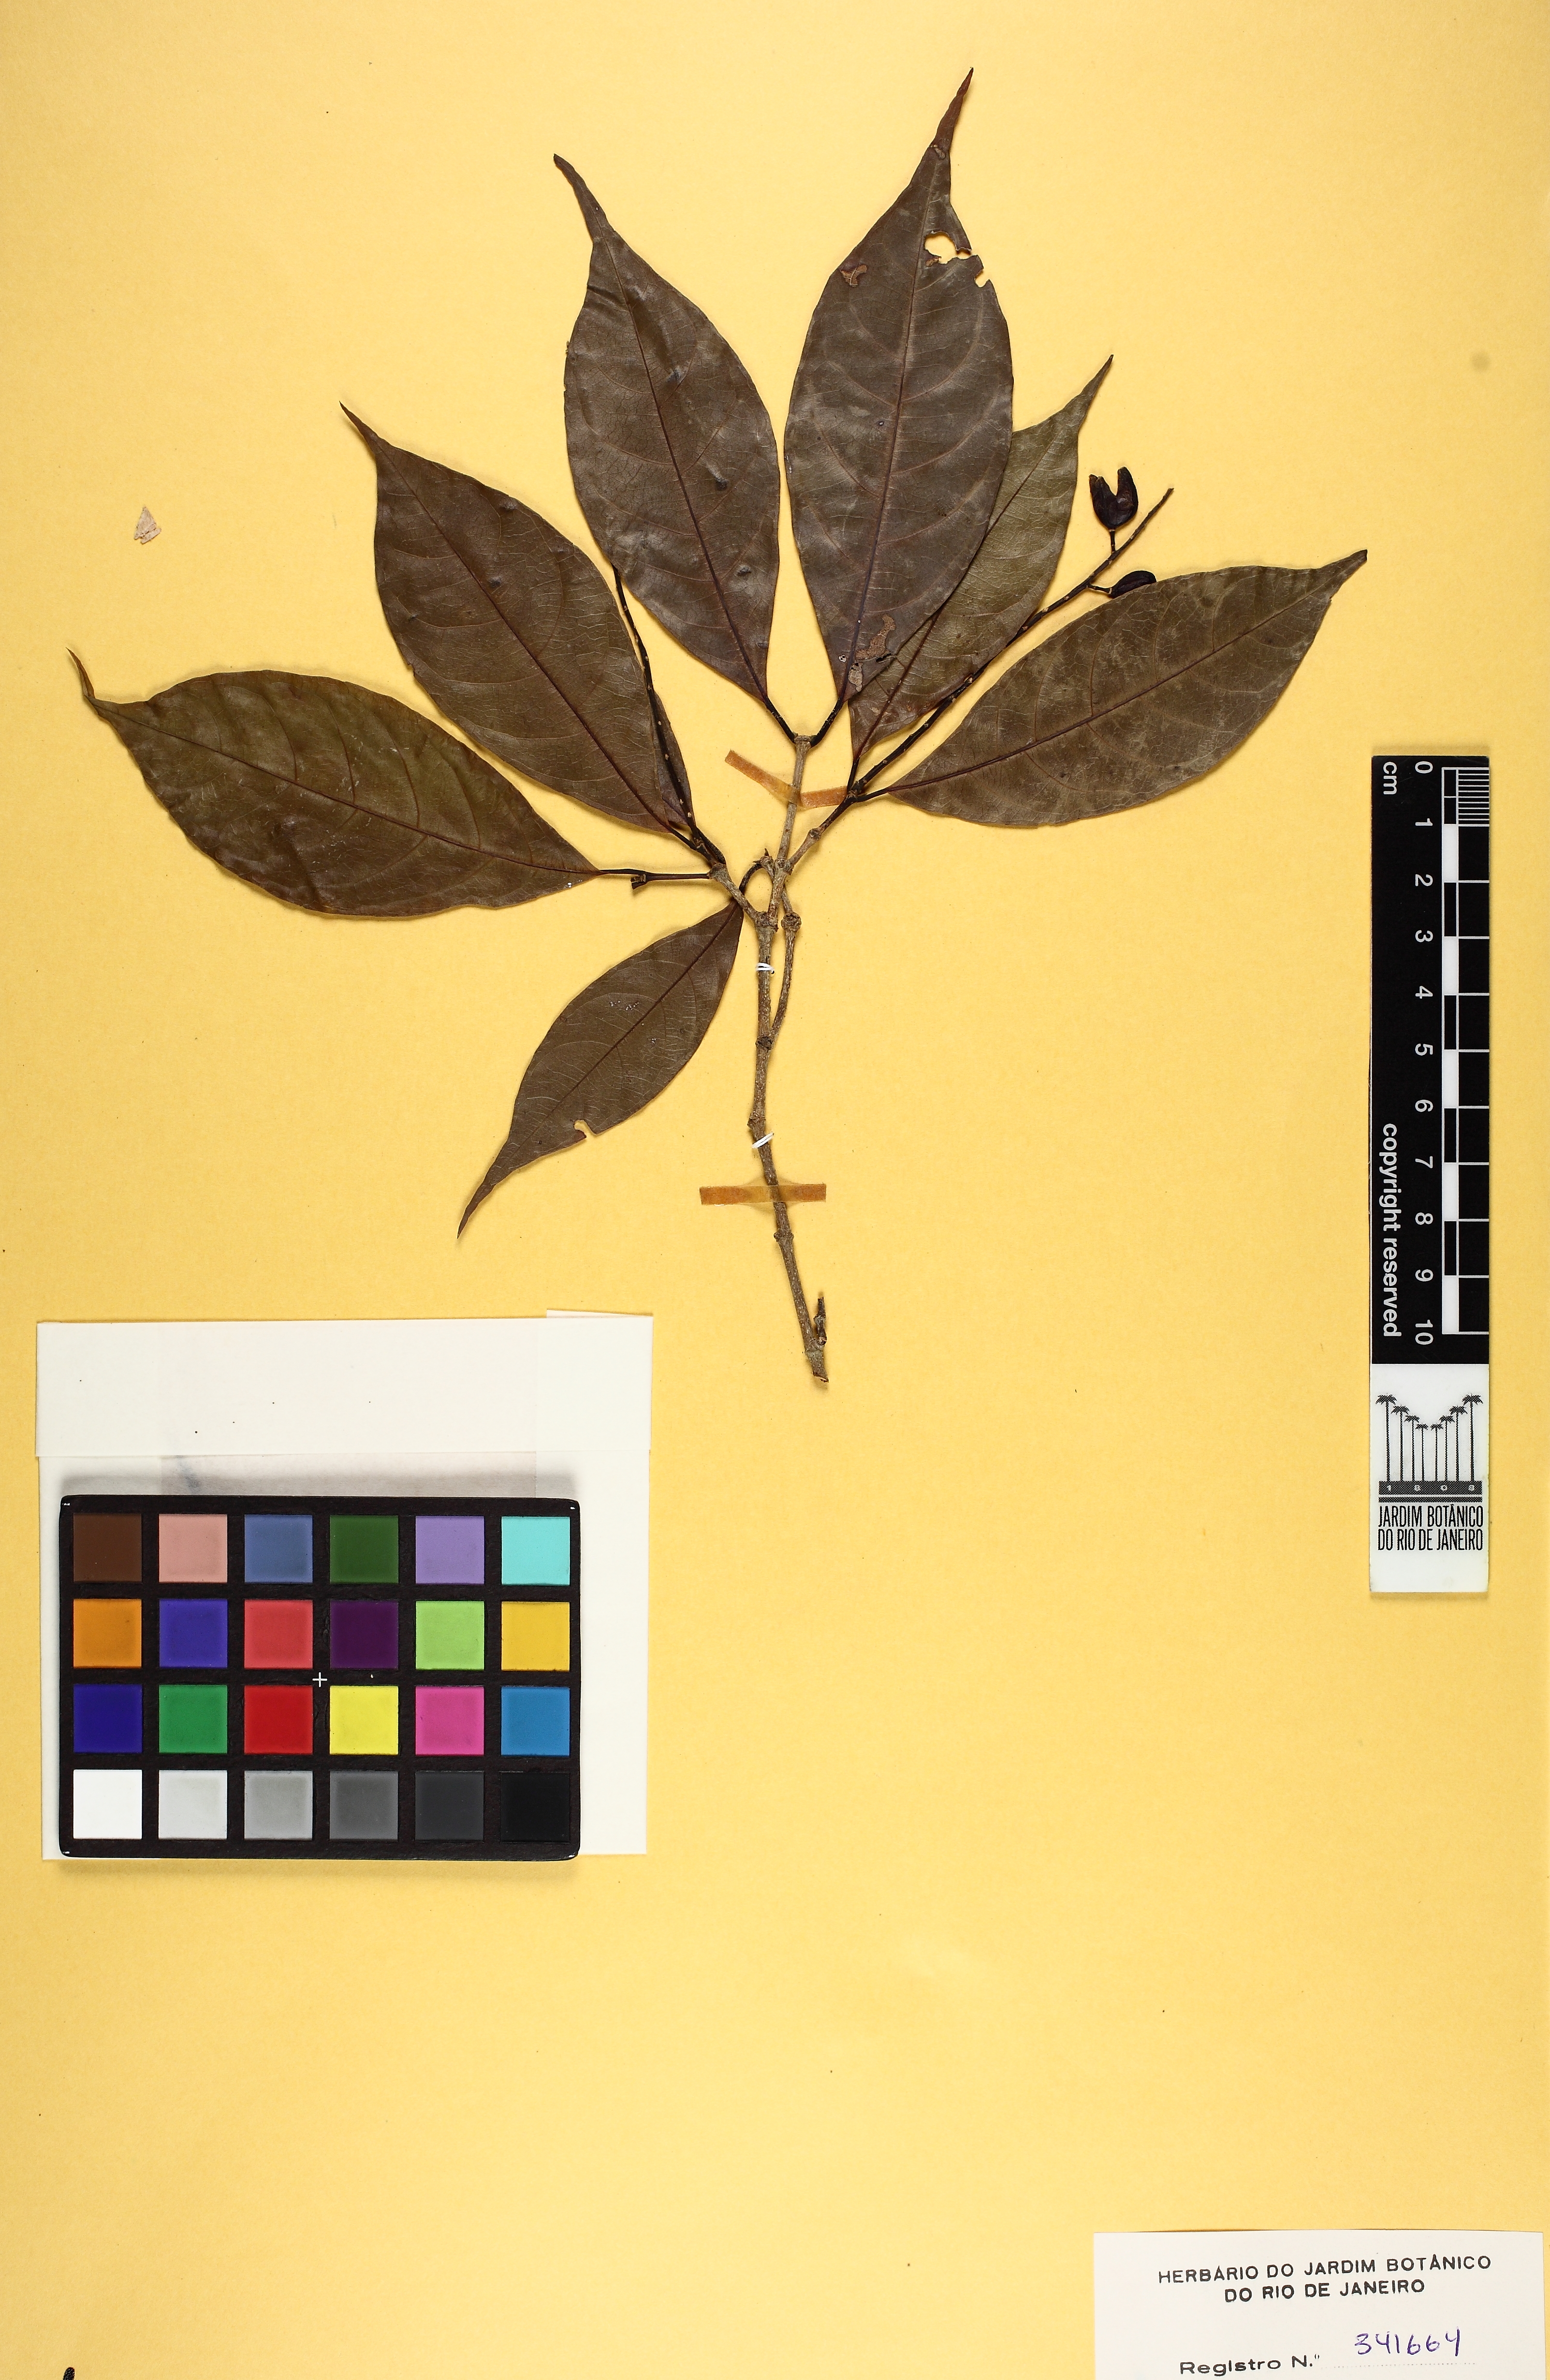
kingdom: Plantae
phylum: Tracheophyta
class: Magnoliopsida
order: Malpighiales
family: Violaceae
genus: Rinorea
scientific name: Rinorea pubiflora
